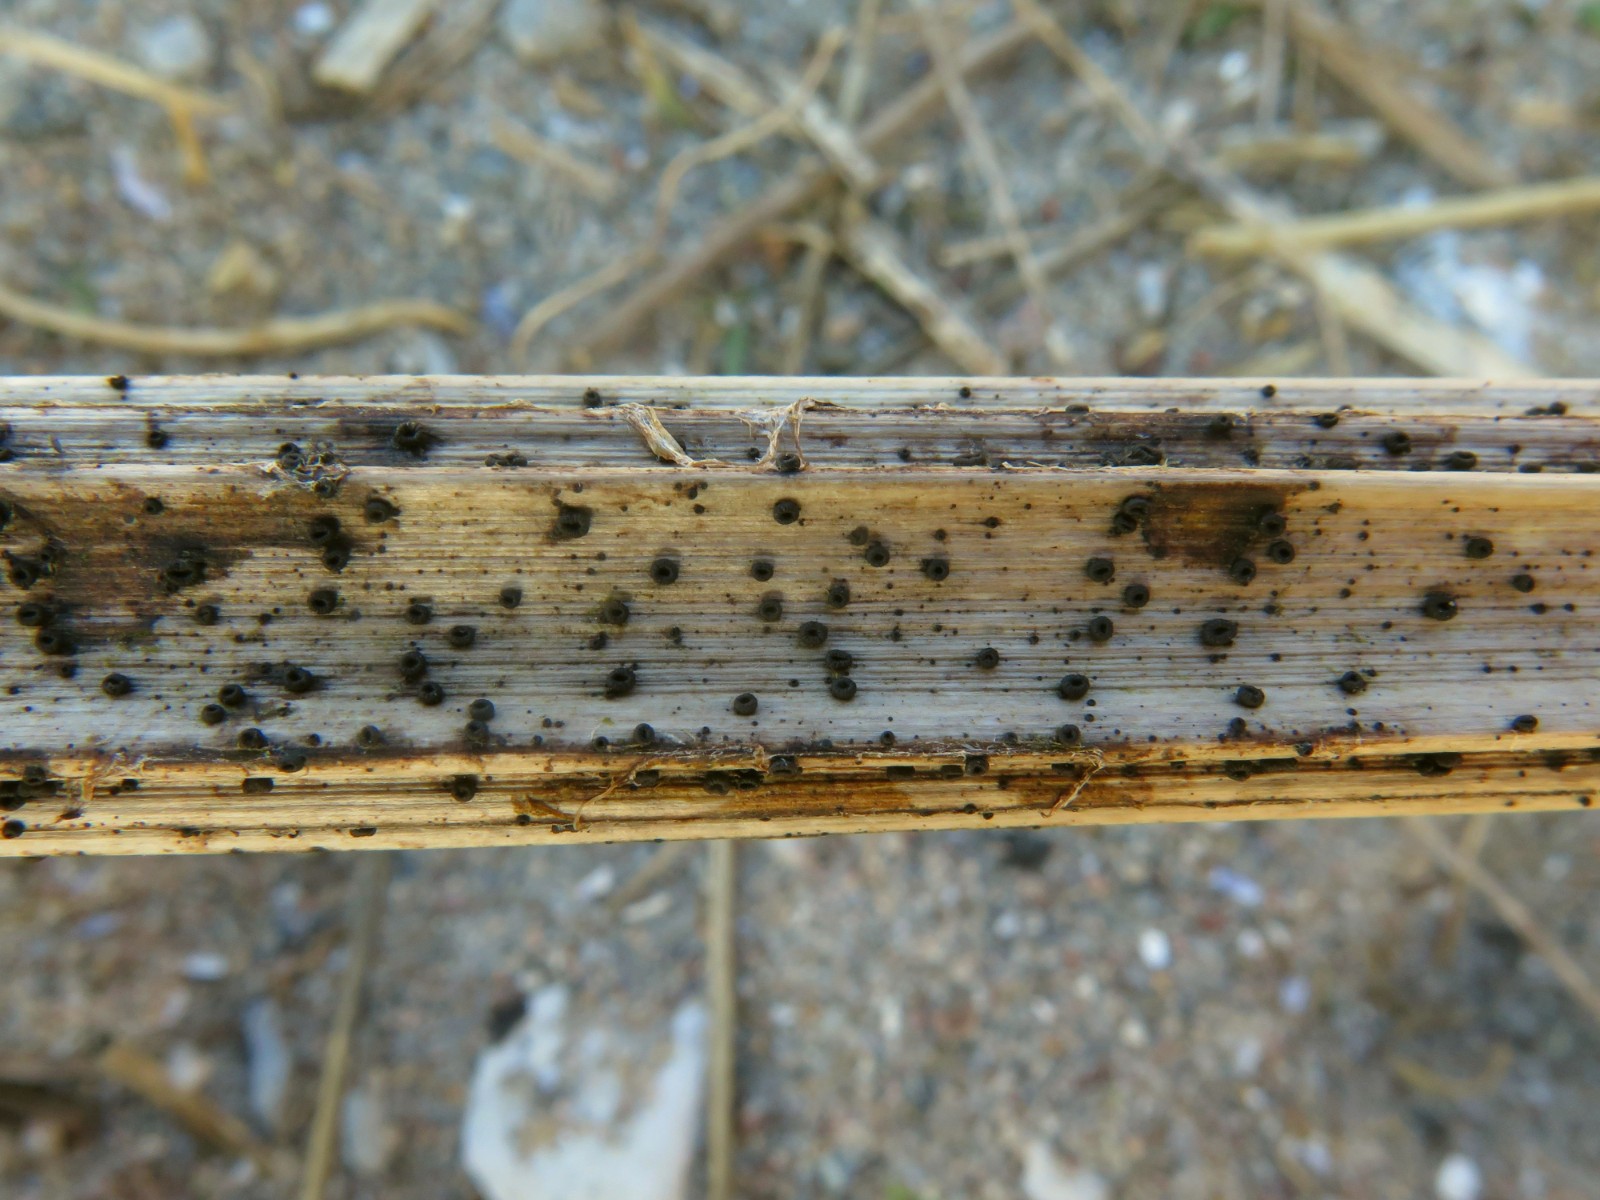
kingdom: Fungi
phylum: Ascomycota
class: Leotiomycetes
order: Helotiales
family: Heterosphaeriaceae
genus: Heterosphaeria
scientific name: Heterosphaeria
